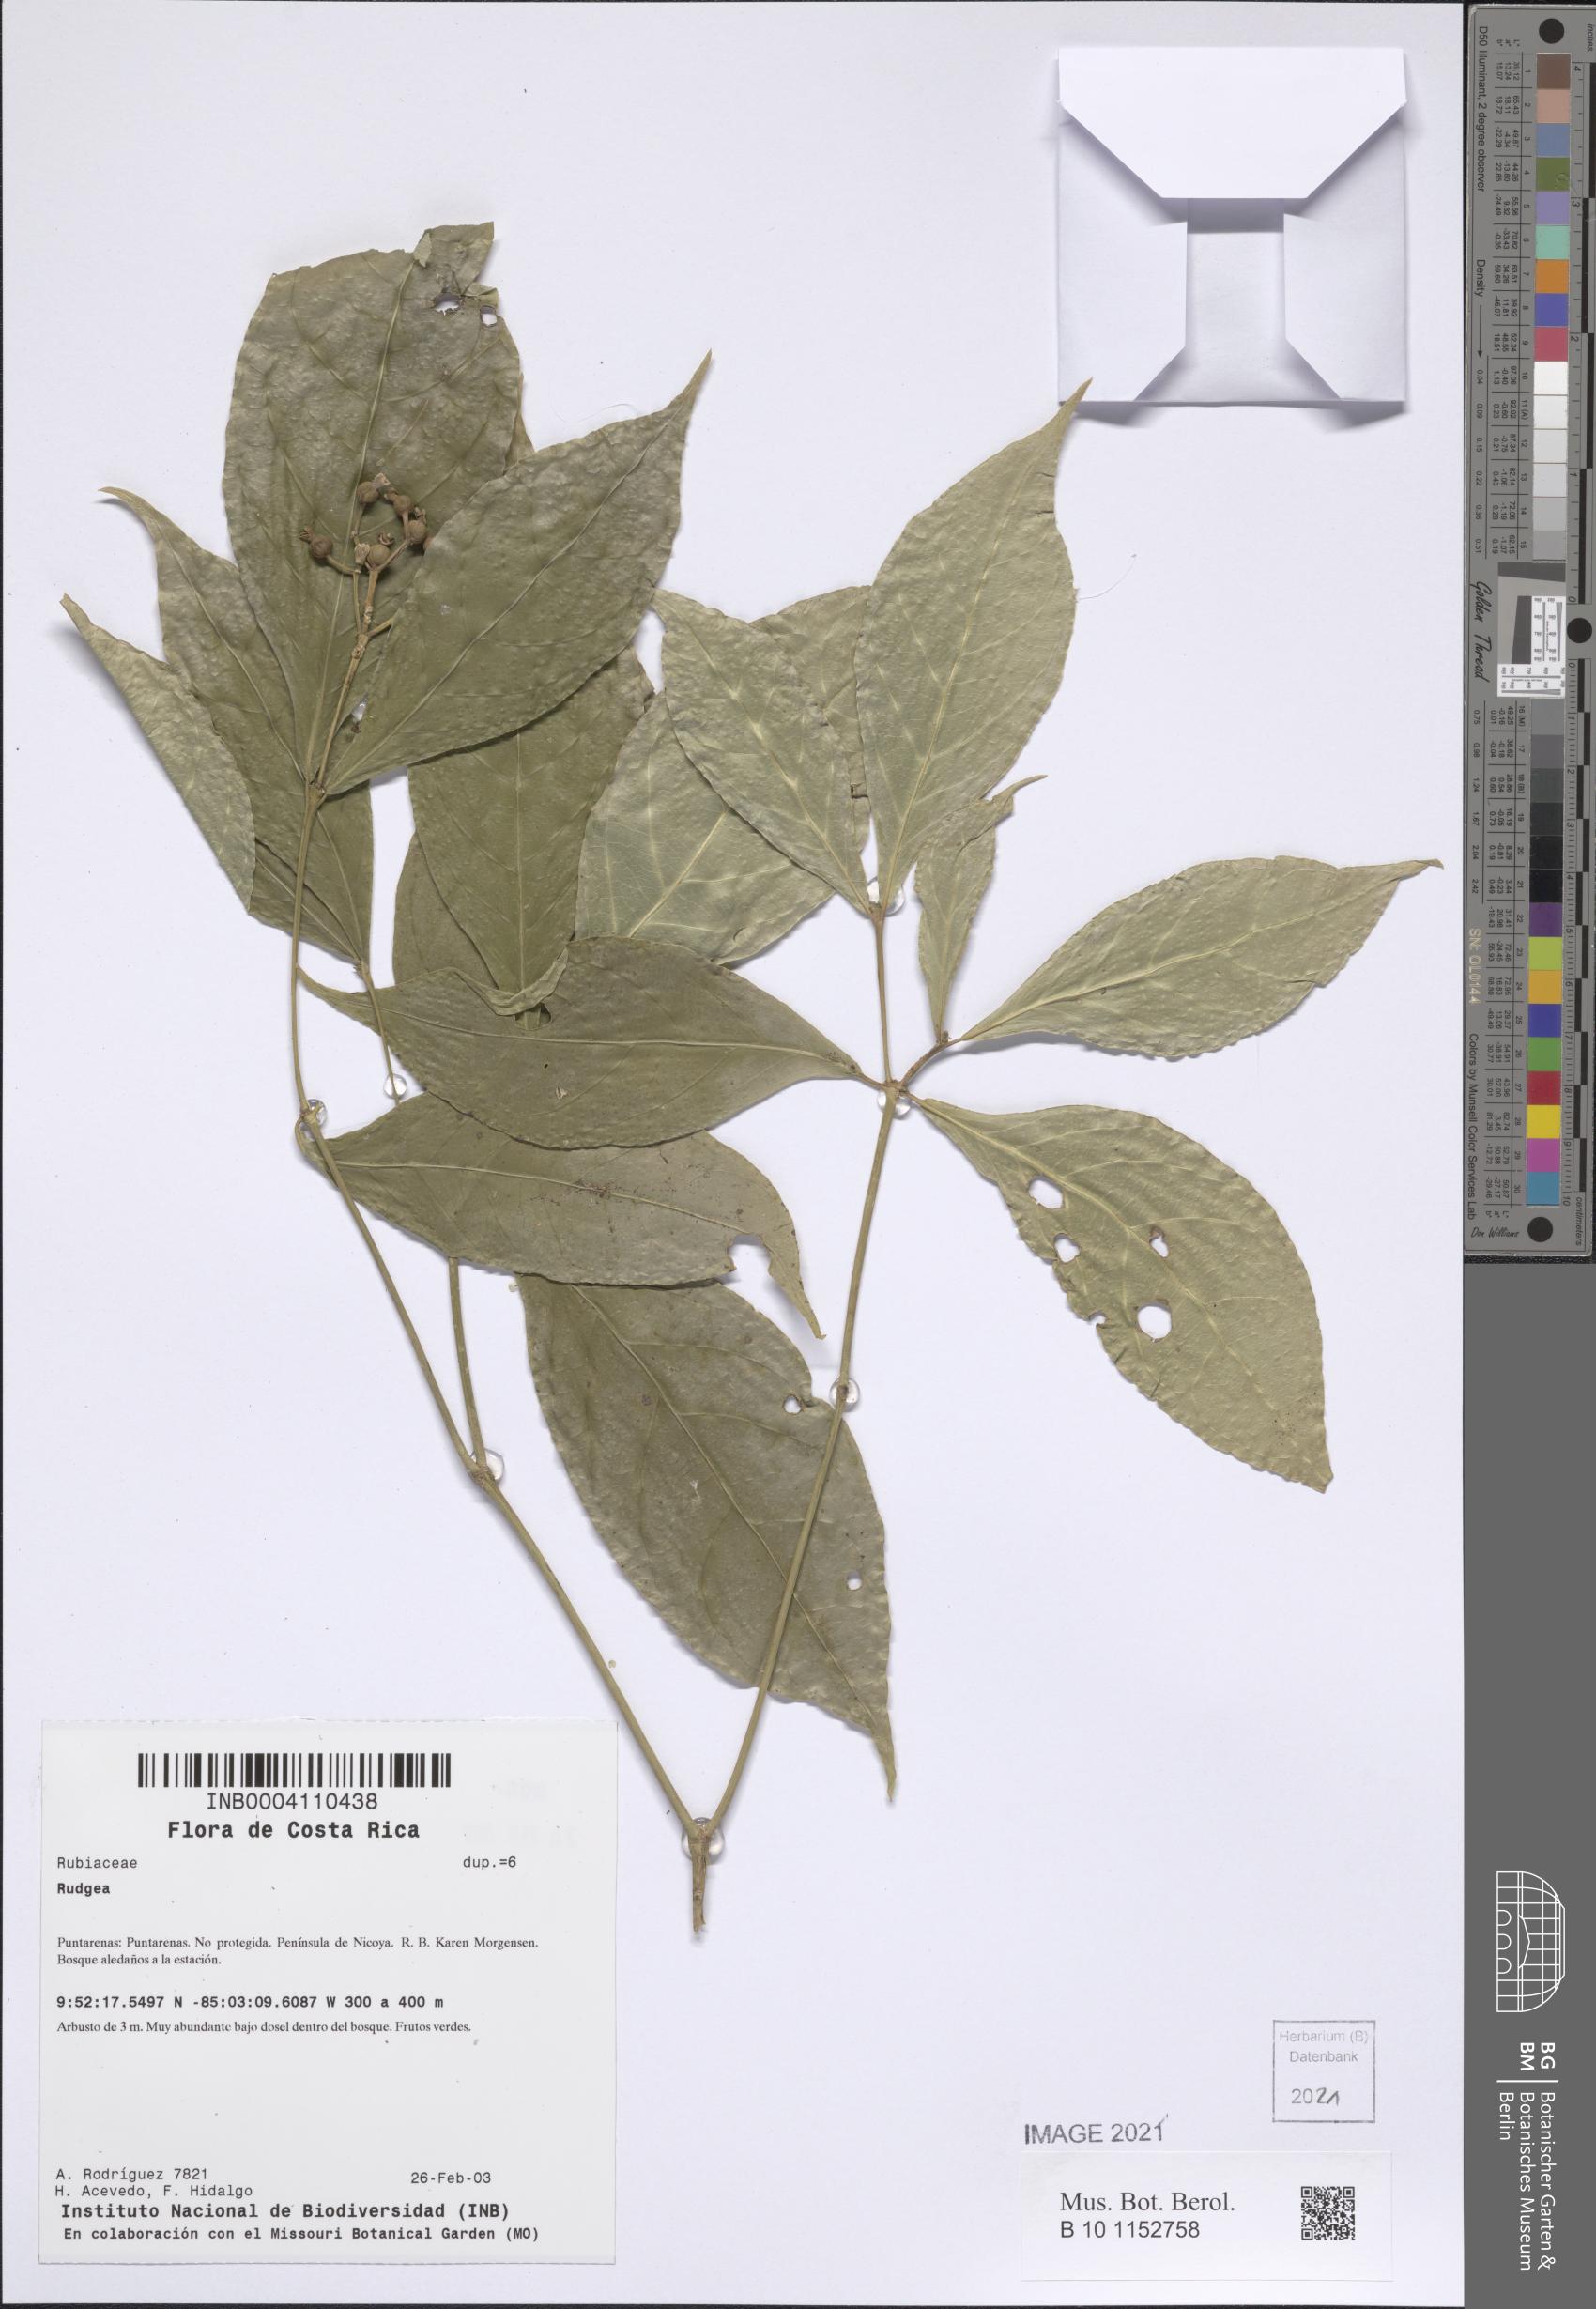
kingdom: Plantae
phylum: Tracheophyta
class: Magnoliopsida
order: Gentianales
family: Rubiaceae
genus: Rudgea
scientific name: Rudgea cornifolia
